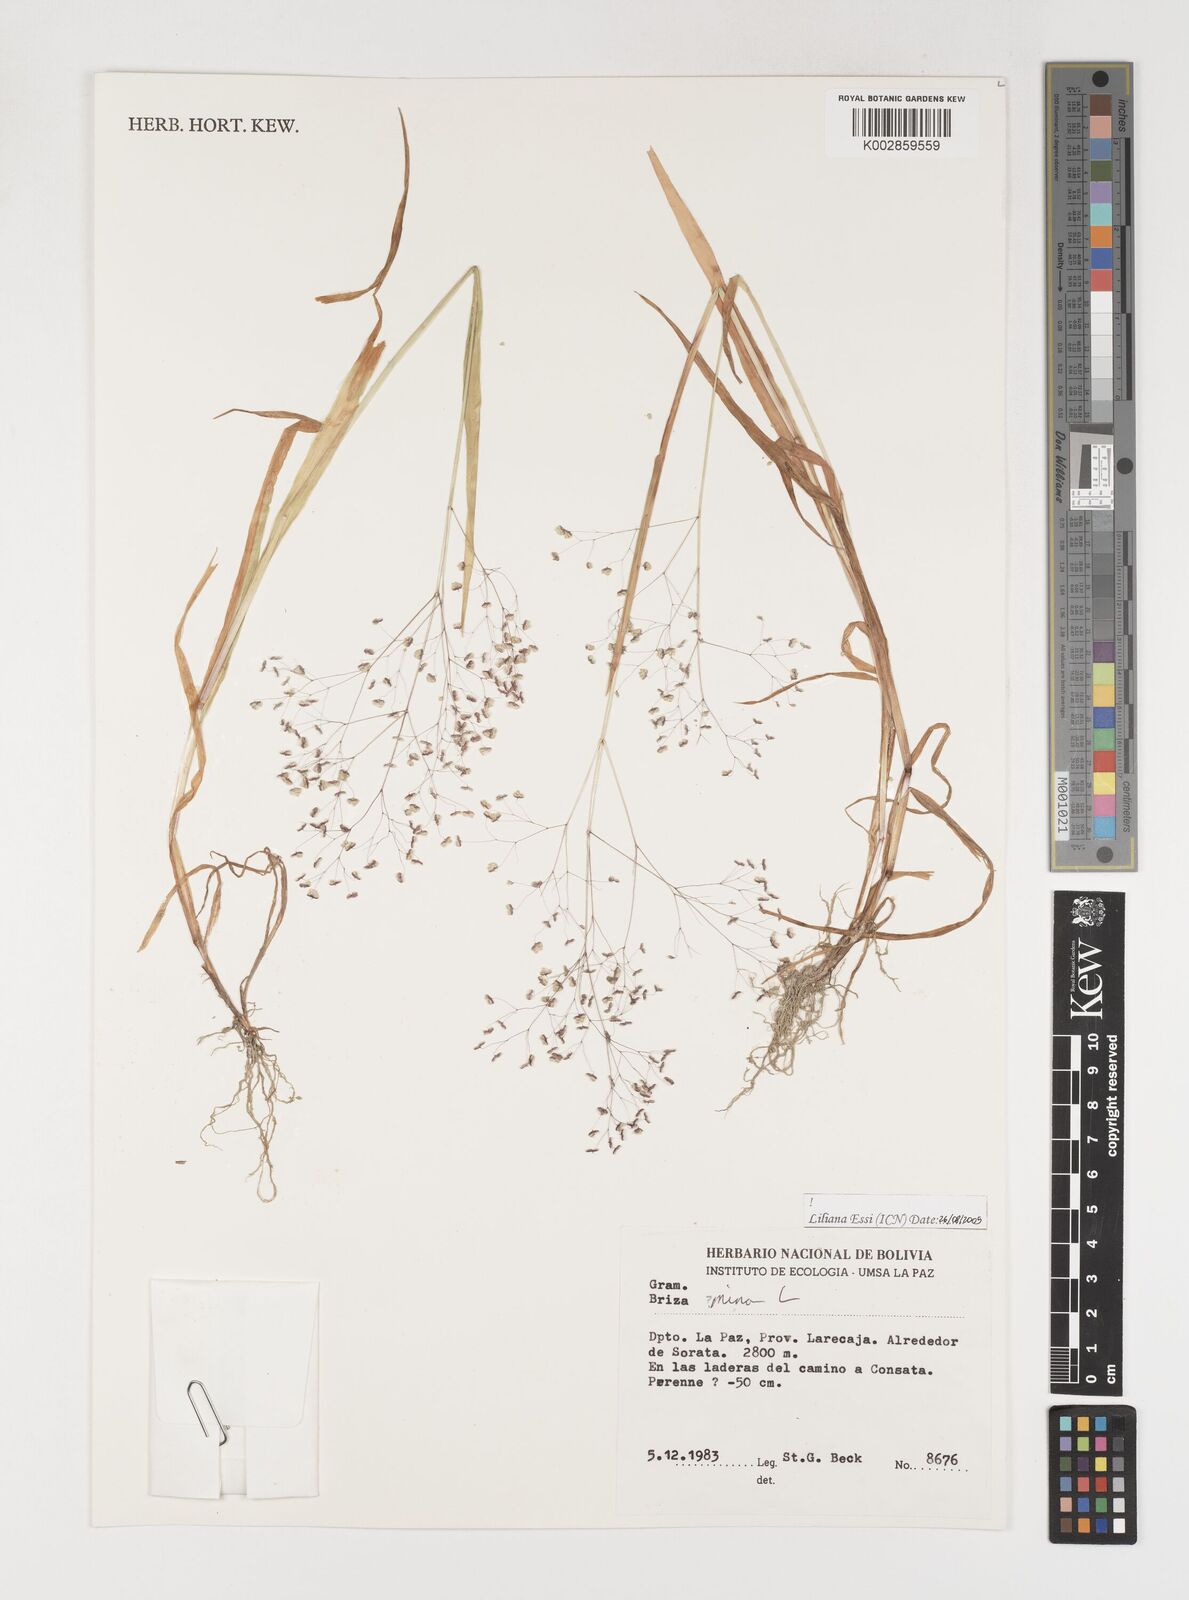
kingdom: Plantae
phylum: Tracheophyta
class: Liliopsida
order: Poales
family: Poaceae
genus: Briza
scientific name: Briza minor
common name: Lesser quaking-grass
